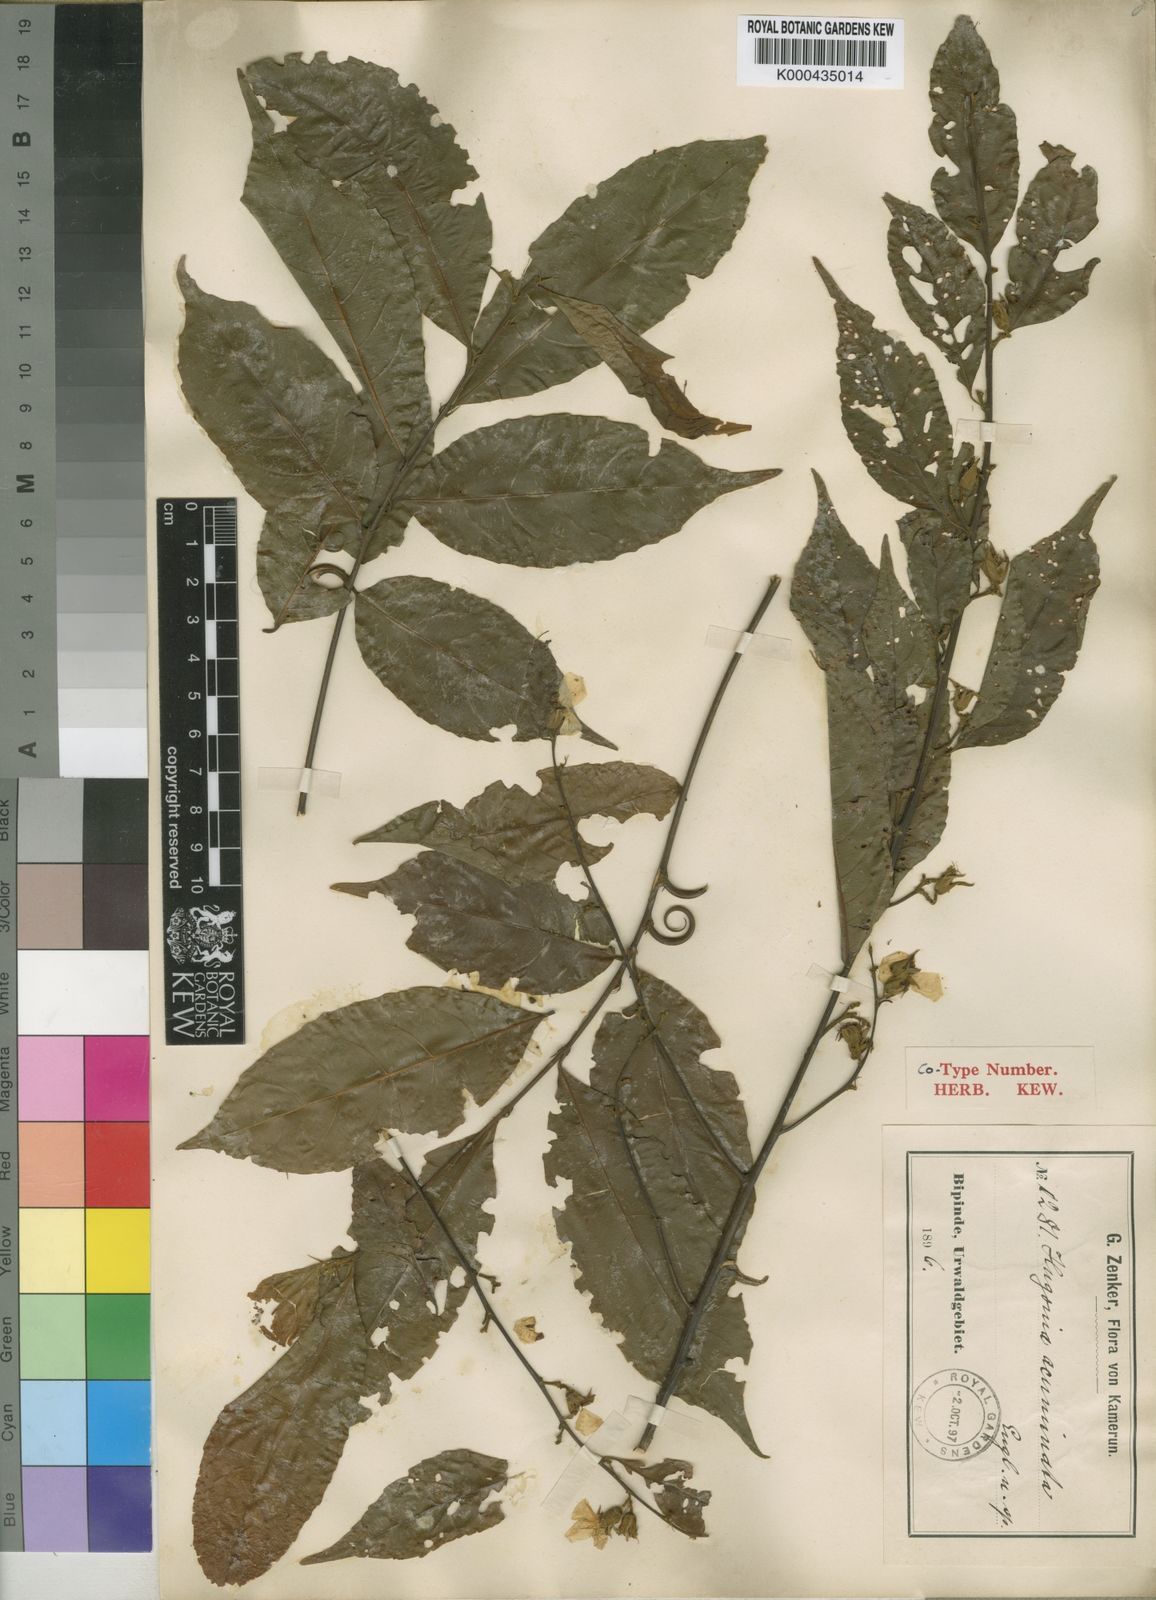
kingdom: Plantae
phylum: Tracheophyta
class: Magnoliopsida
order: Malpighiales
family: Linaceae
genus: Hugonia
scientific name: Hugonia planchonii
